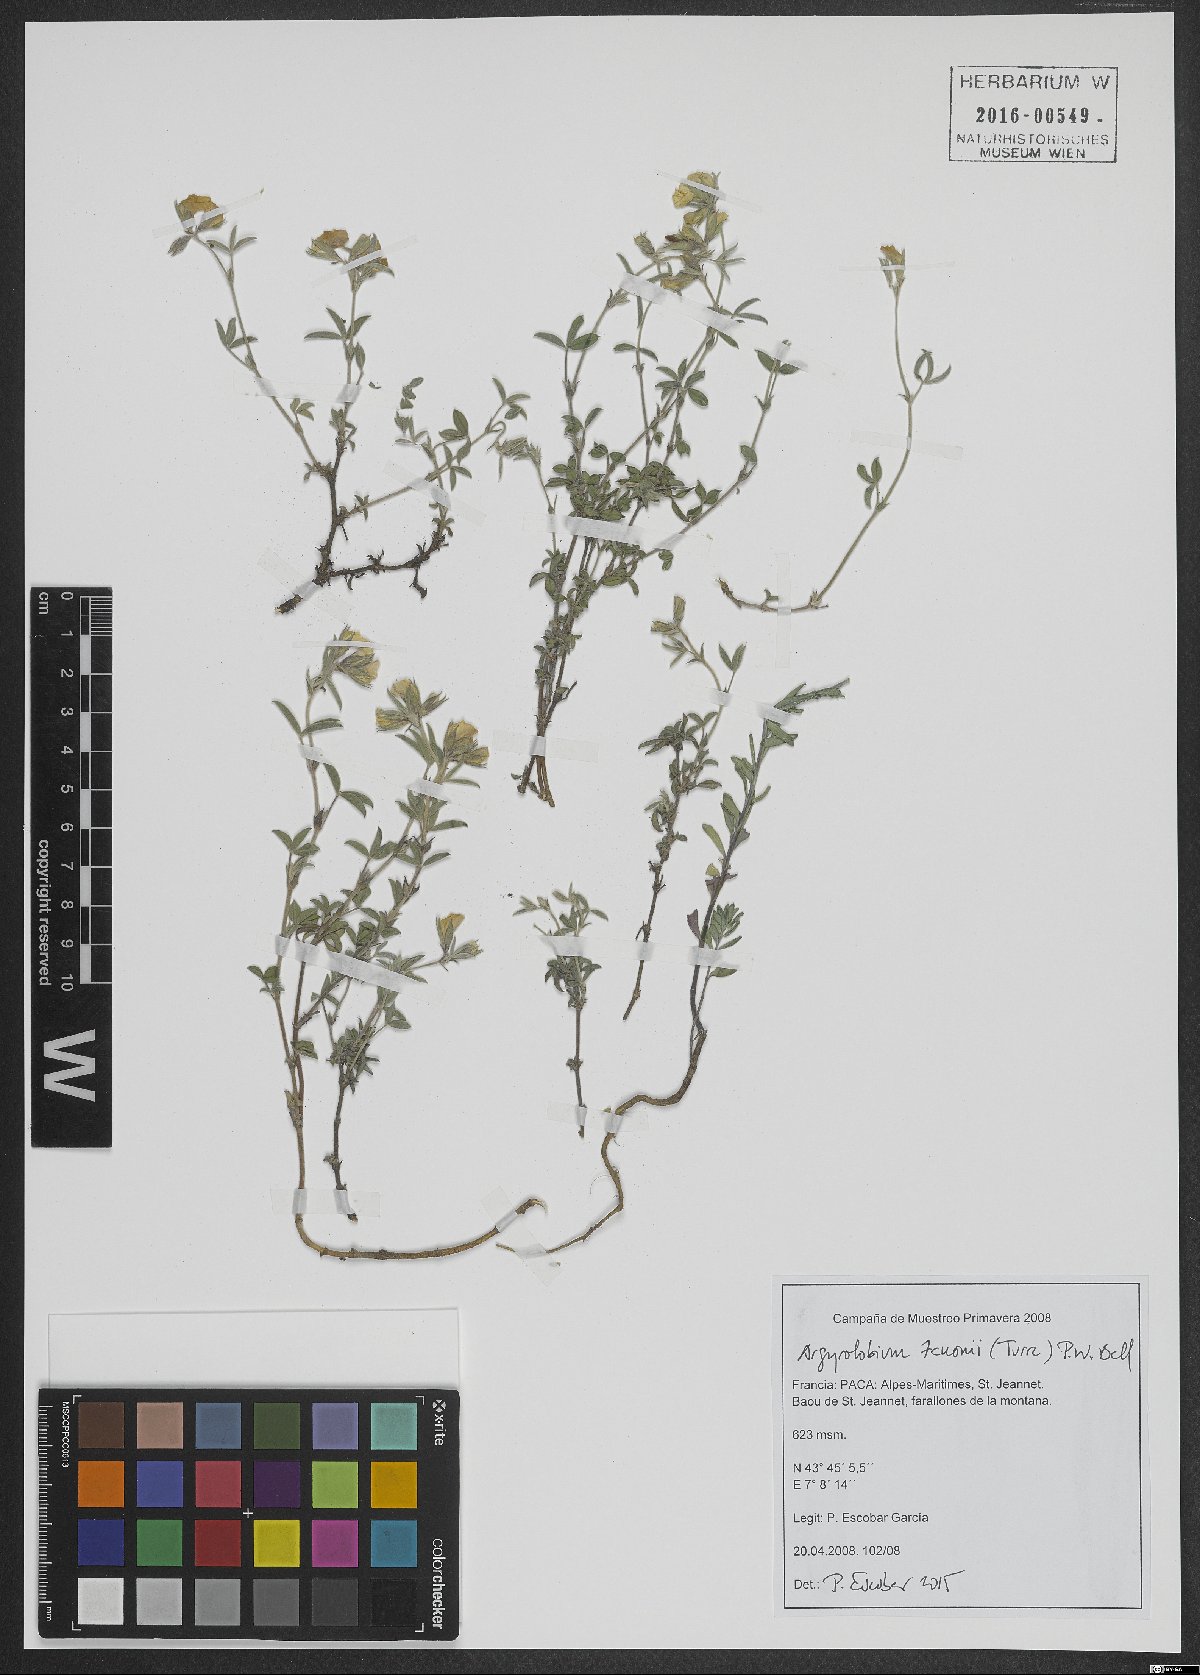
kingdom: Plantae
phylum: Tracheophyta
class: Magnoliopsida
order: Fabales
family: Fabaceae
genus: Argyrolobium
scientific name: Argyrolobium zanonii
